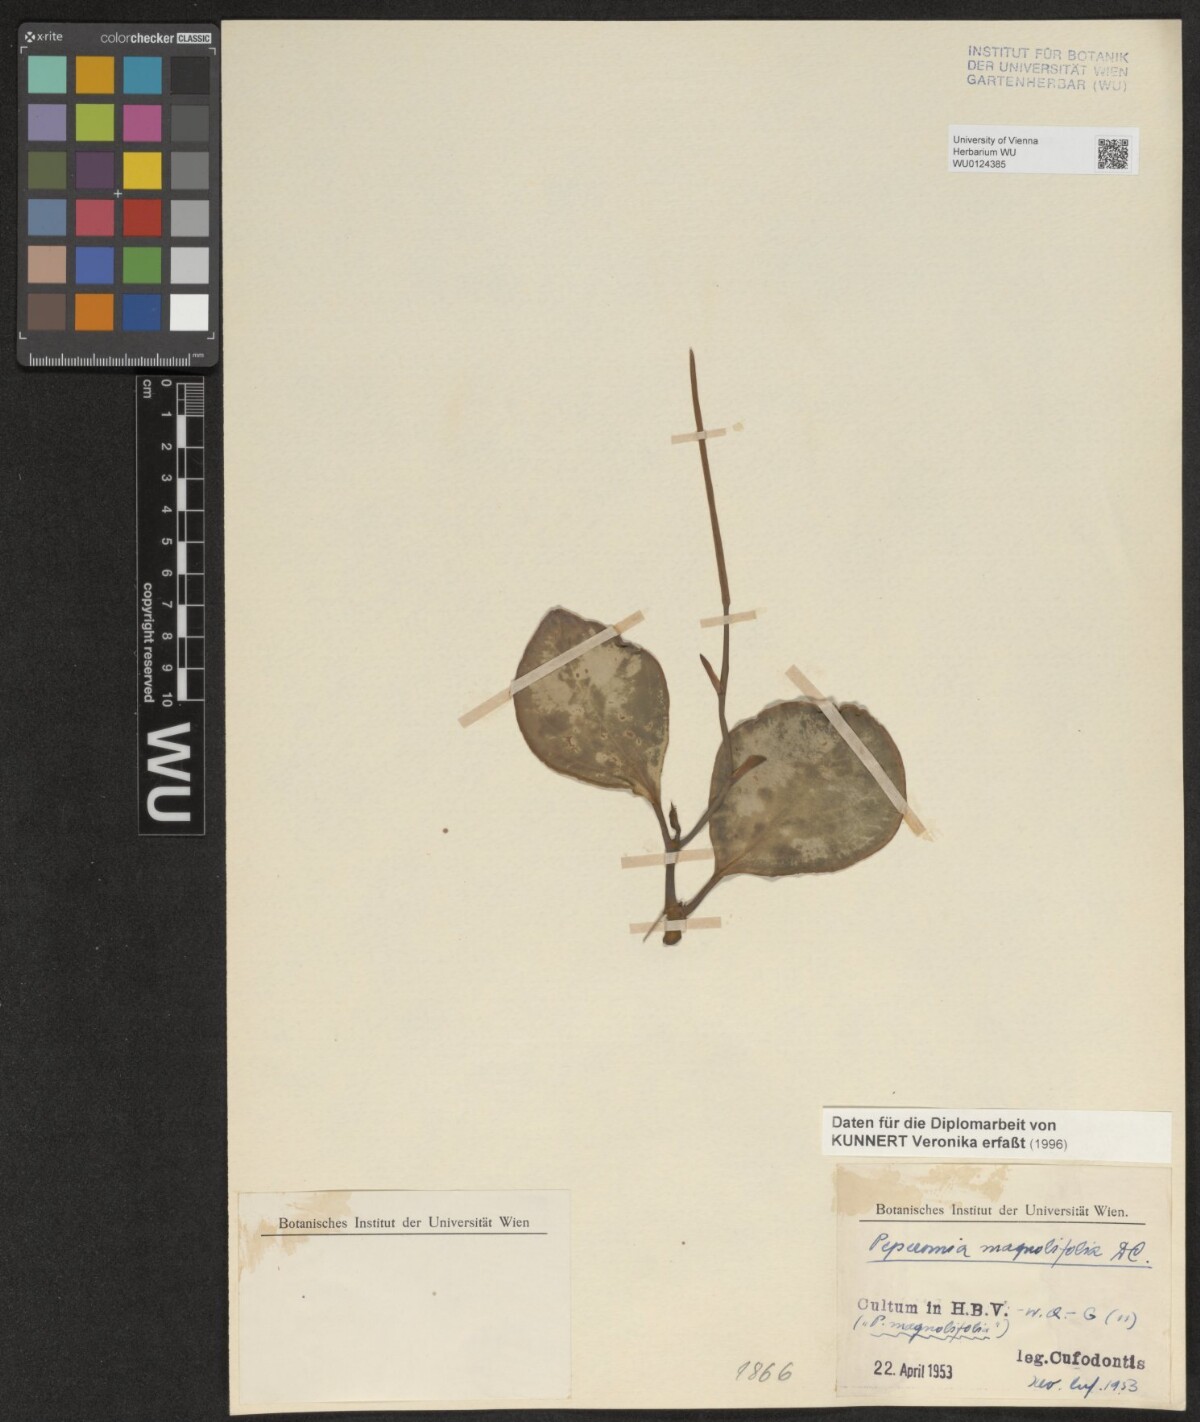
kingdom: Plantae
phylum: Tracheophyta
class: Magnoliopsida
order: Piperales
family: Piperaceae
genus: Peperomia
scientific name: Peperomia magnoliifolia
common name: Spoonleaf peperomia
